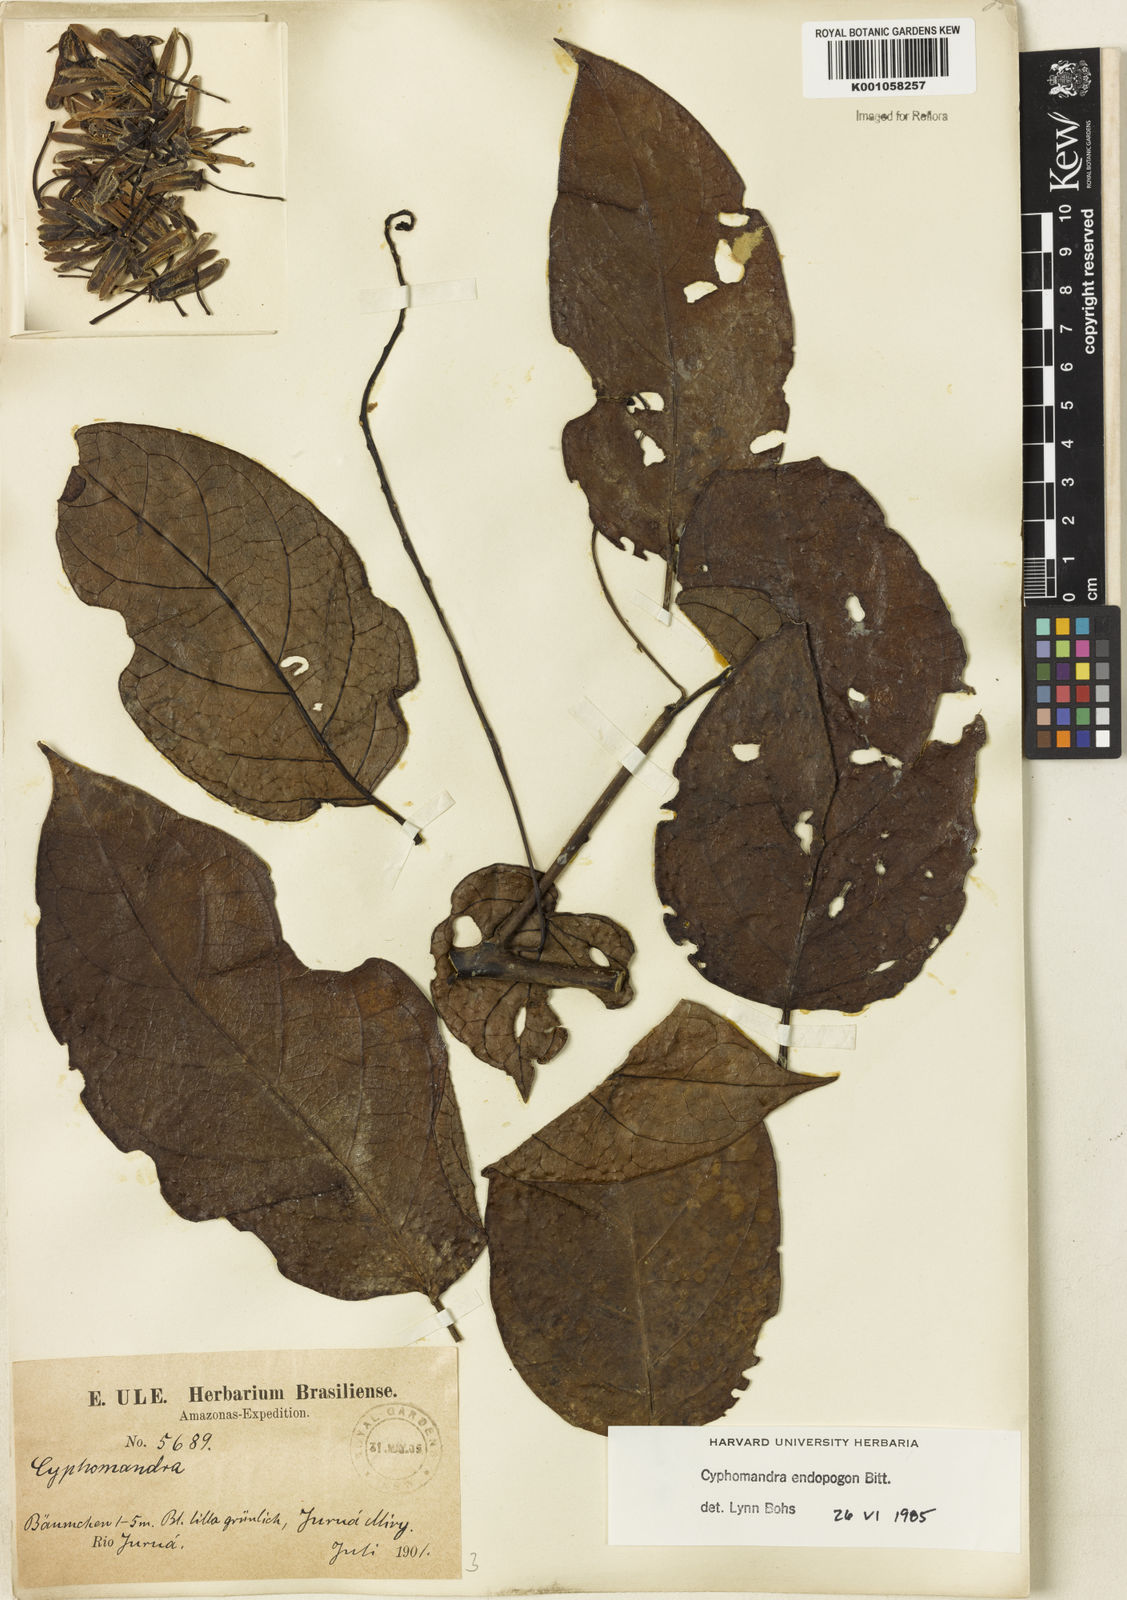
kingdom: Plantae
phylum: Tracheophyta
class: Magnoliopsida
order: Solanales
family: Solanaceae
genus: Solanum
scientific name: Solanum endopogon
